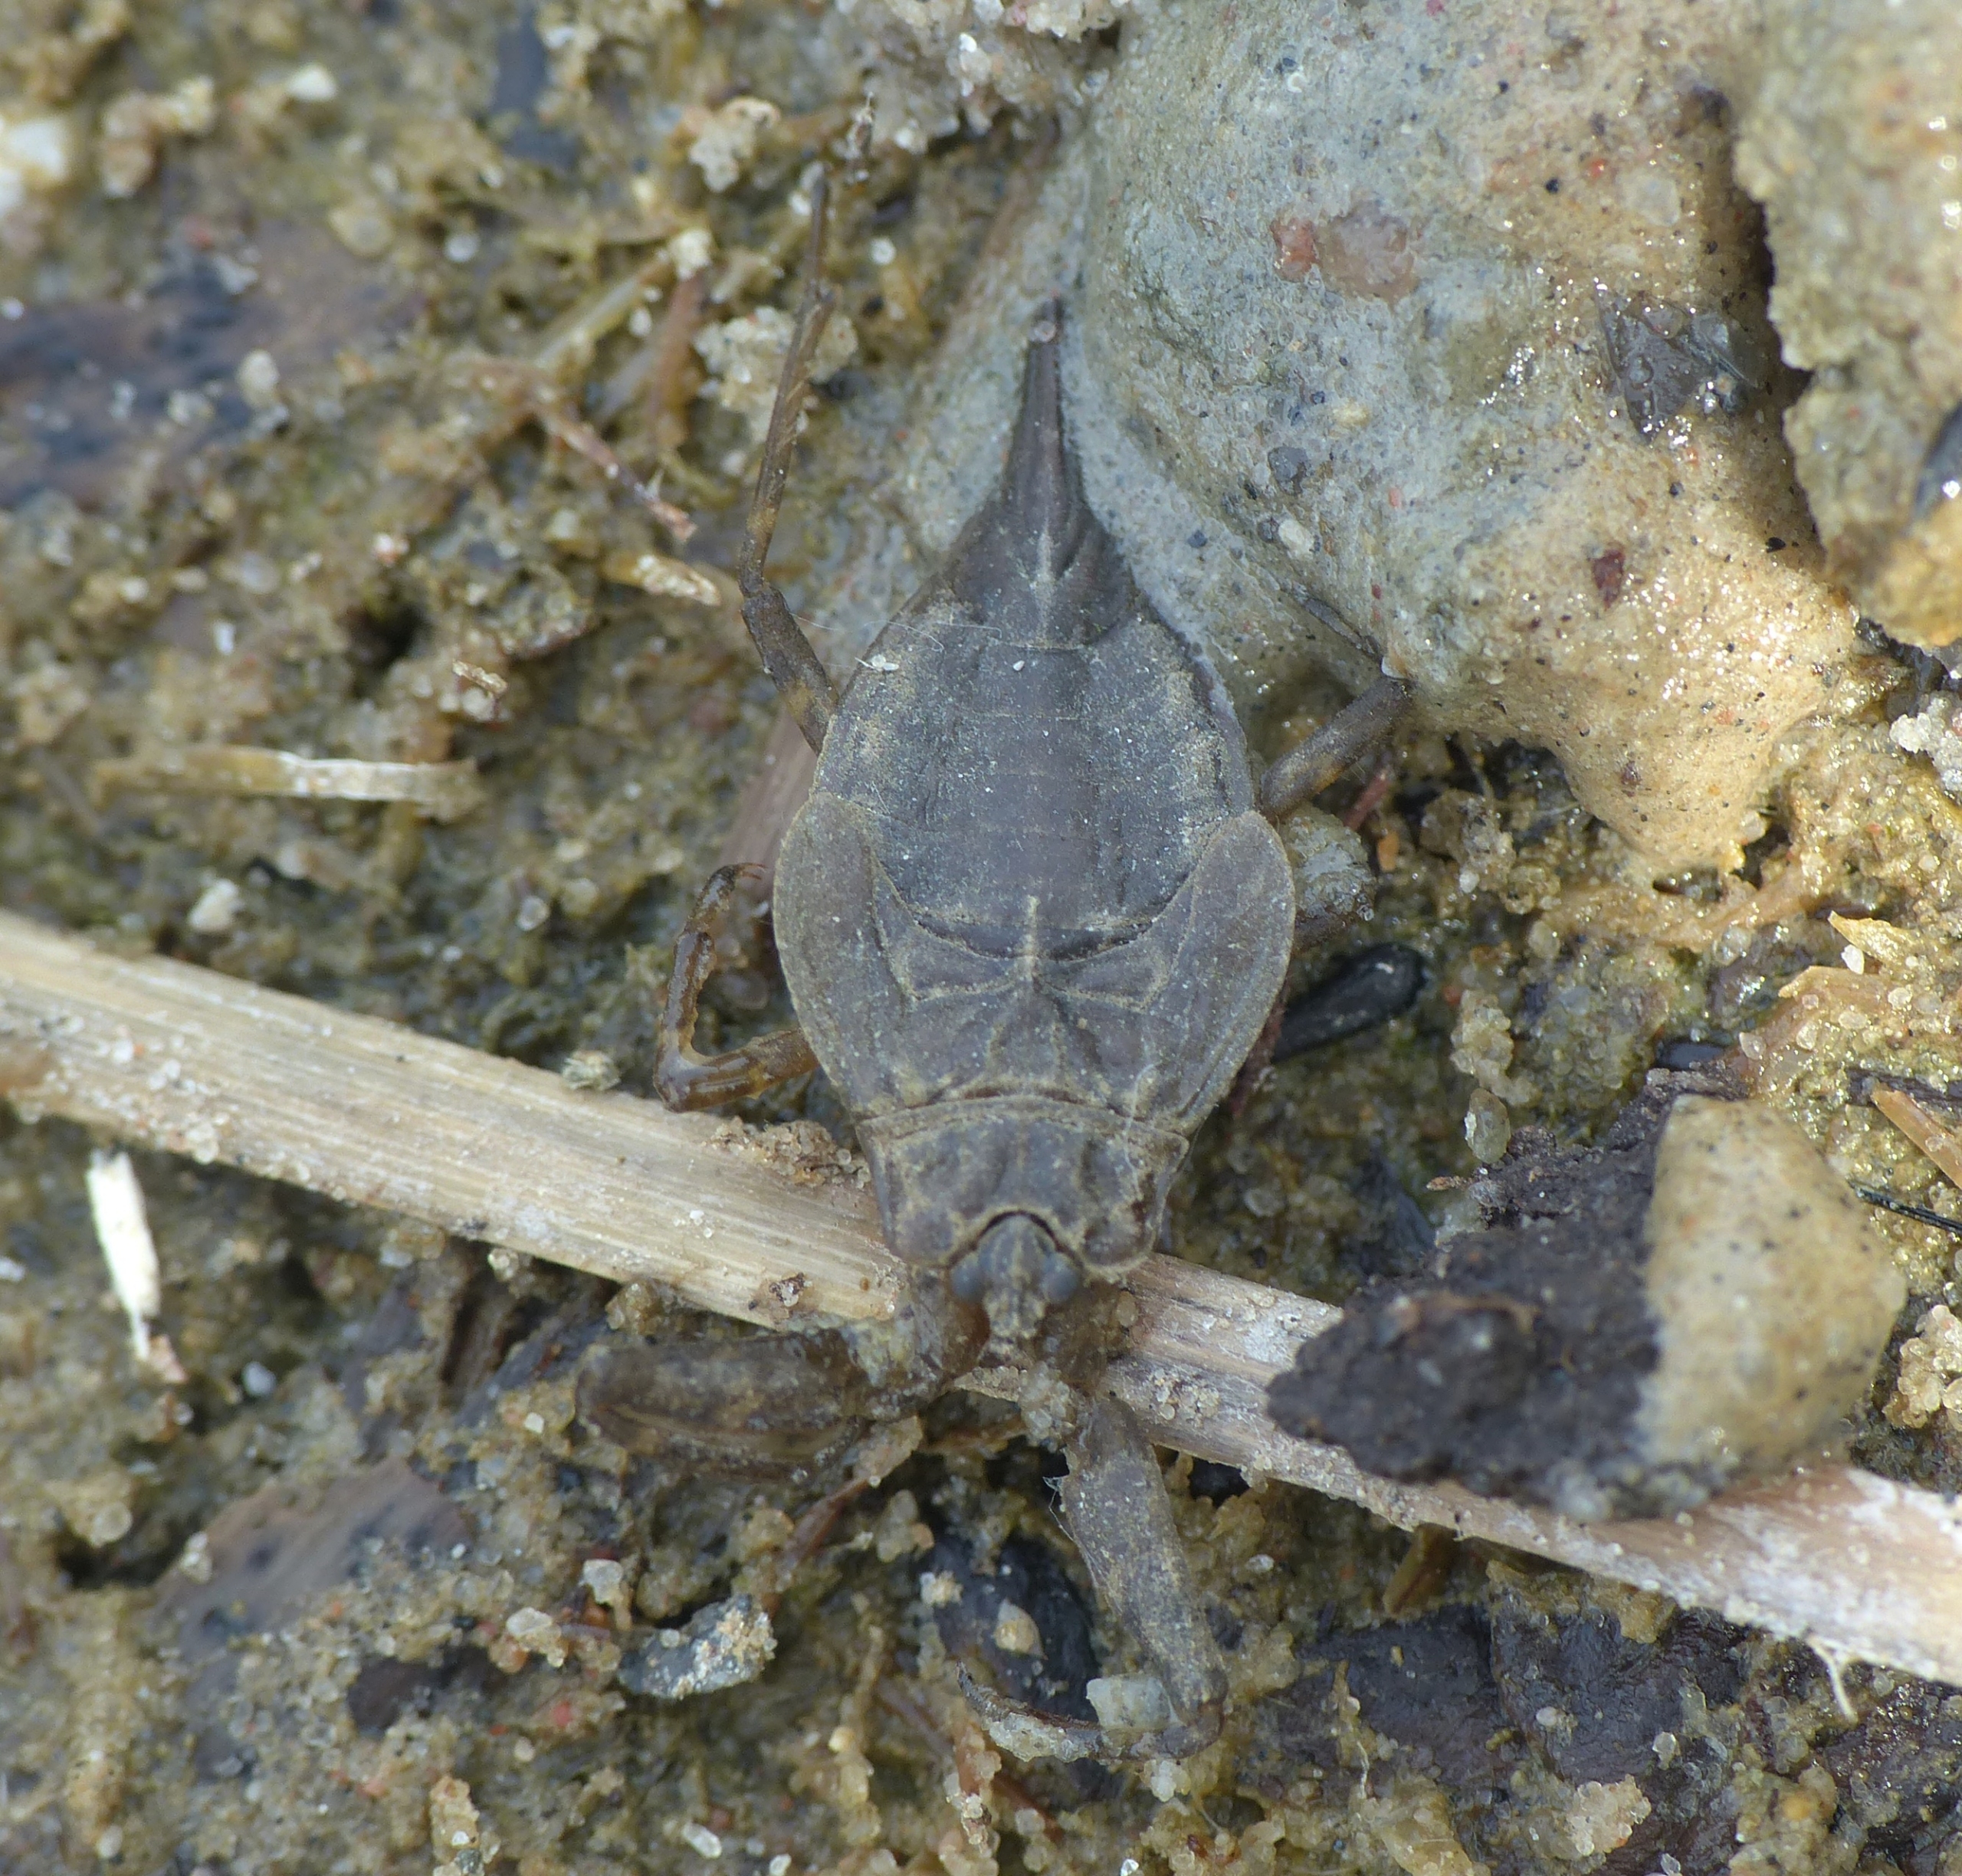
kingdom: Animalia
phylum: Arthropoda
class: Insecta
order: Hemiptera
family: Nepidae
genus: Nepa
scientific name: Nepa cinerea
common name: Skorpiontæge
